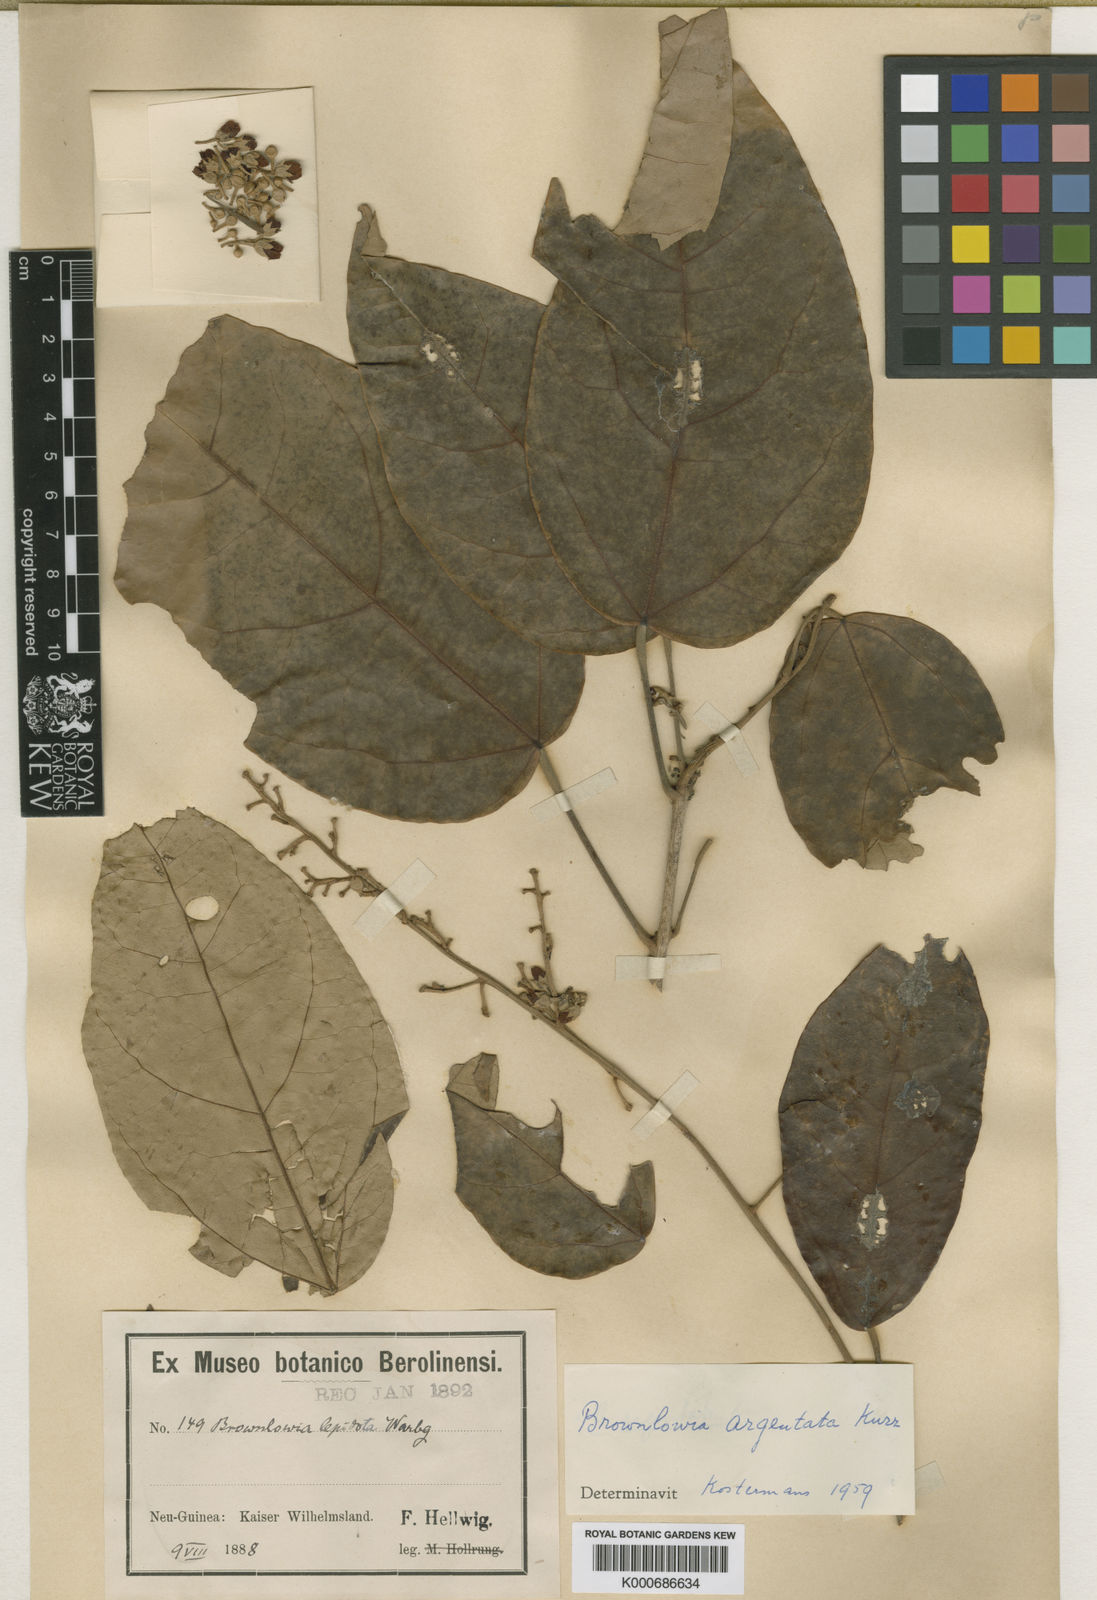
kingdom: Plantae
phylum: Tracheophyta
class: Magnoliopsida
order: Malvales
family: Malvaceae
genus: Brownlowia
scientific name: Brownlowia argentata
